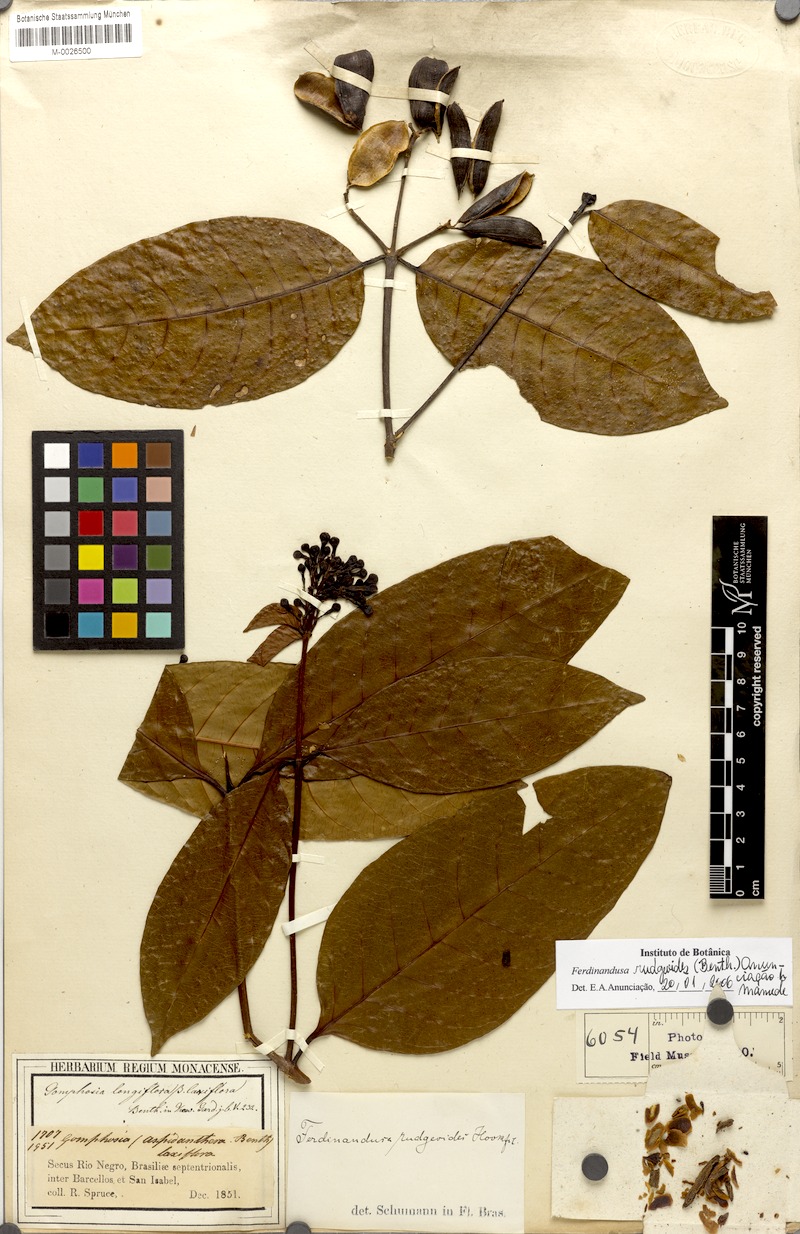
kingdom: Plantae
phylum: Tracheophyta
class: Magnoliopsida
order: Gentianales
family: Rubiaceae
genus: Ferdinandusa
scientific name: Ferdinandusa rudgeoides
